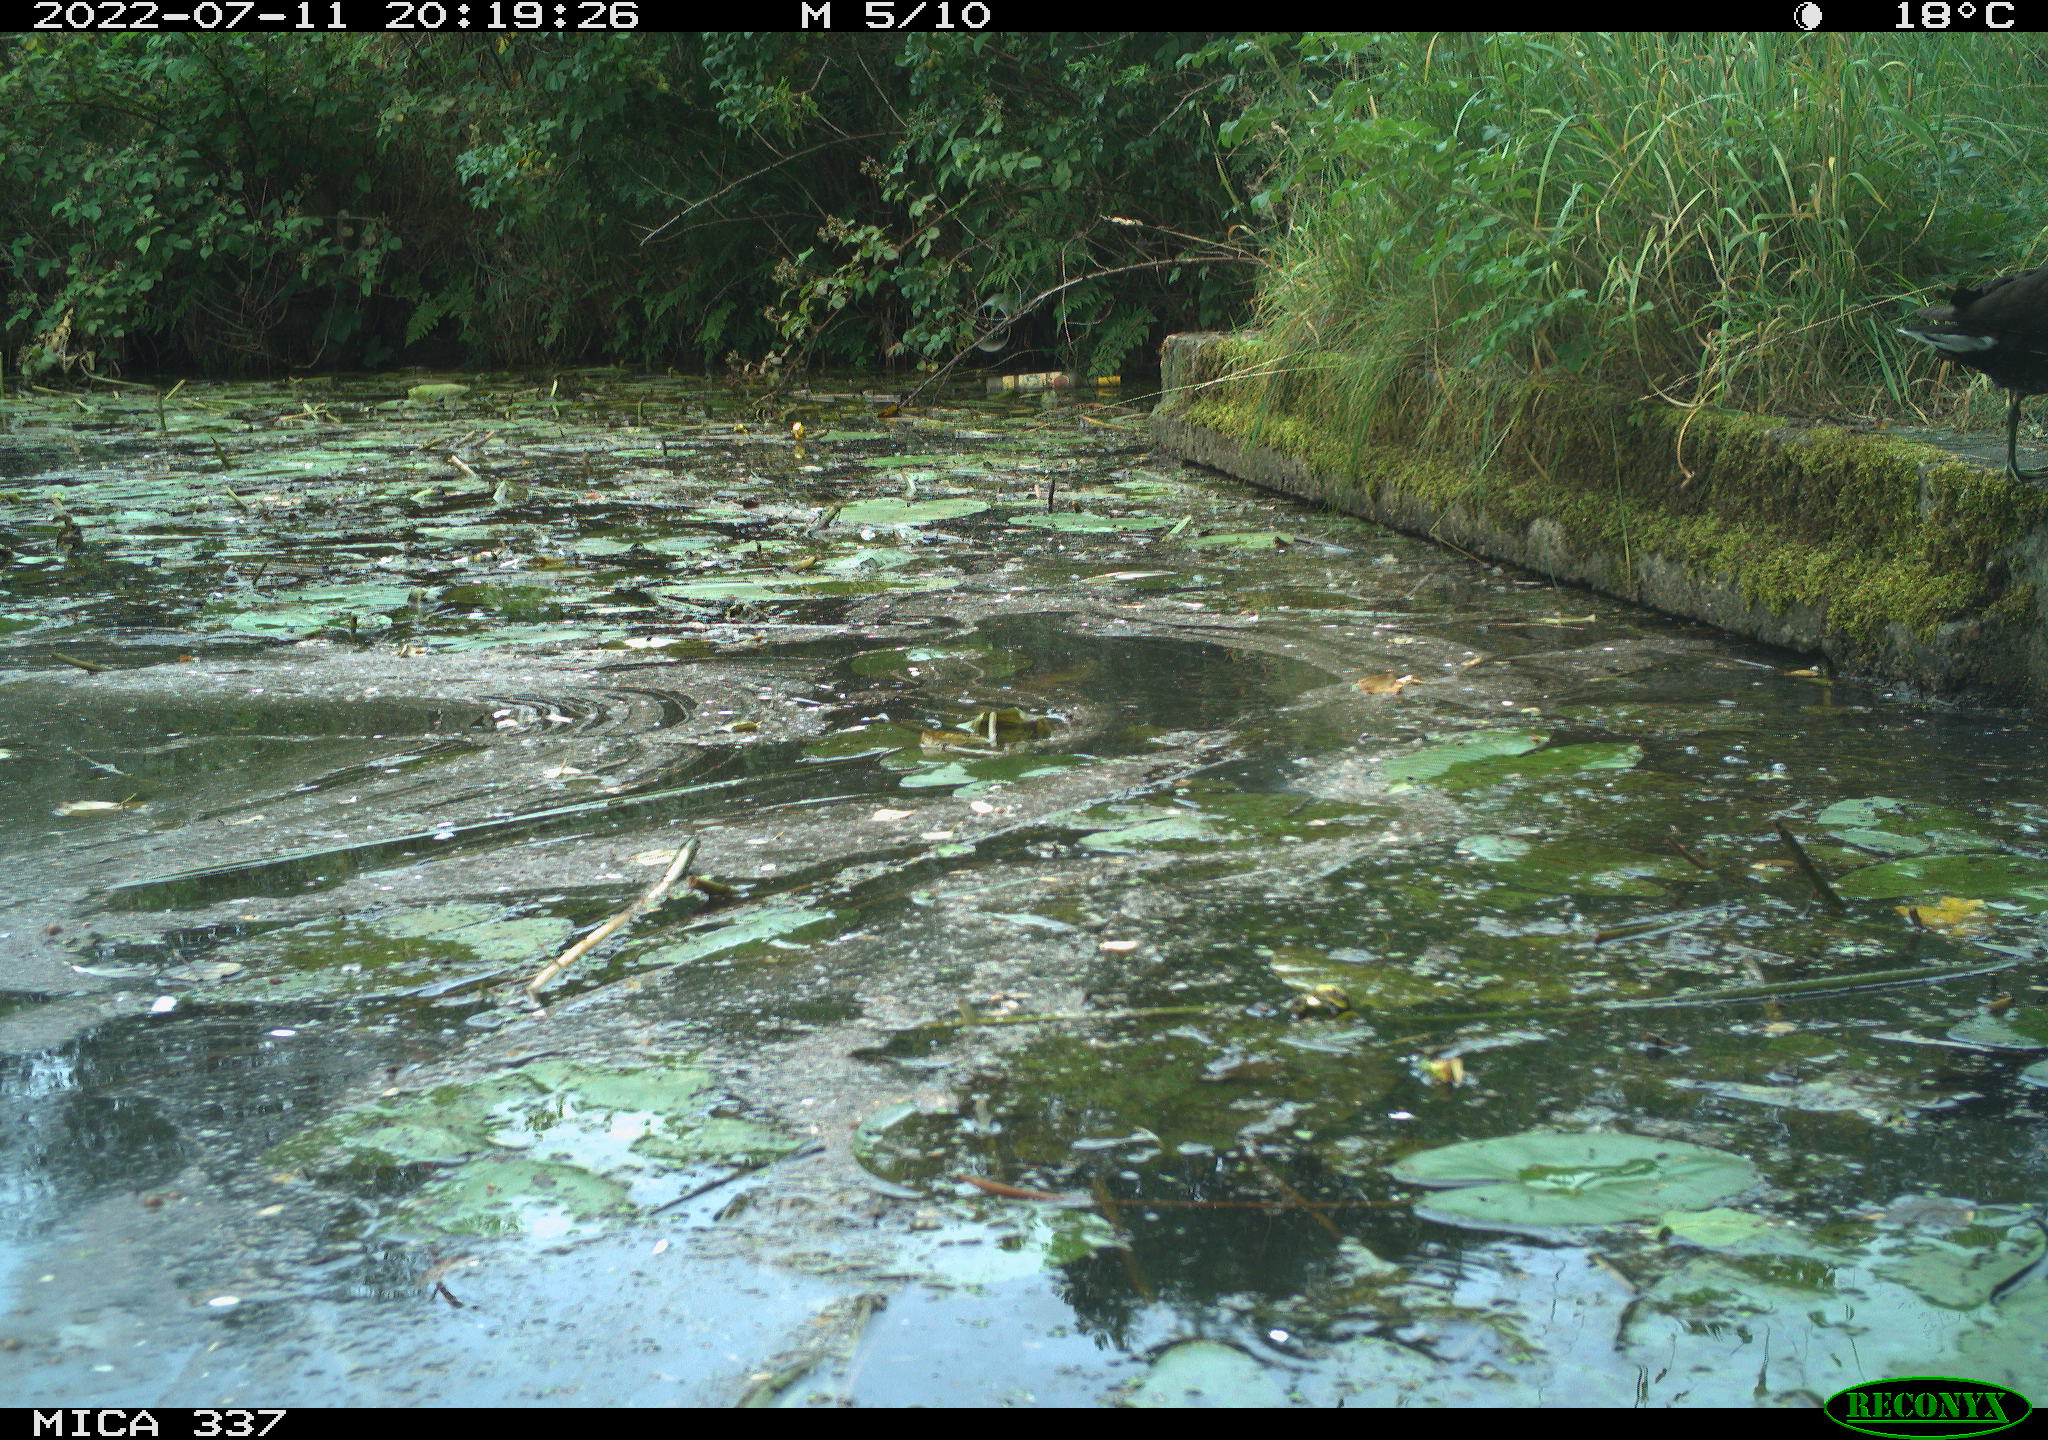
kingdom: Animalia
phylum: Chordata
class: Aves
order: Gruiformes
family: Rallidae
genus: Gallinula
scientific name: Gallinula chloropus
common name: Common moorhen
